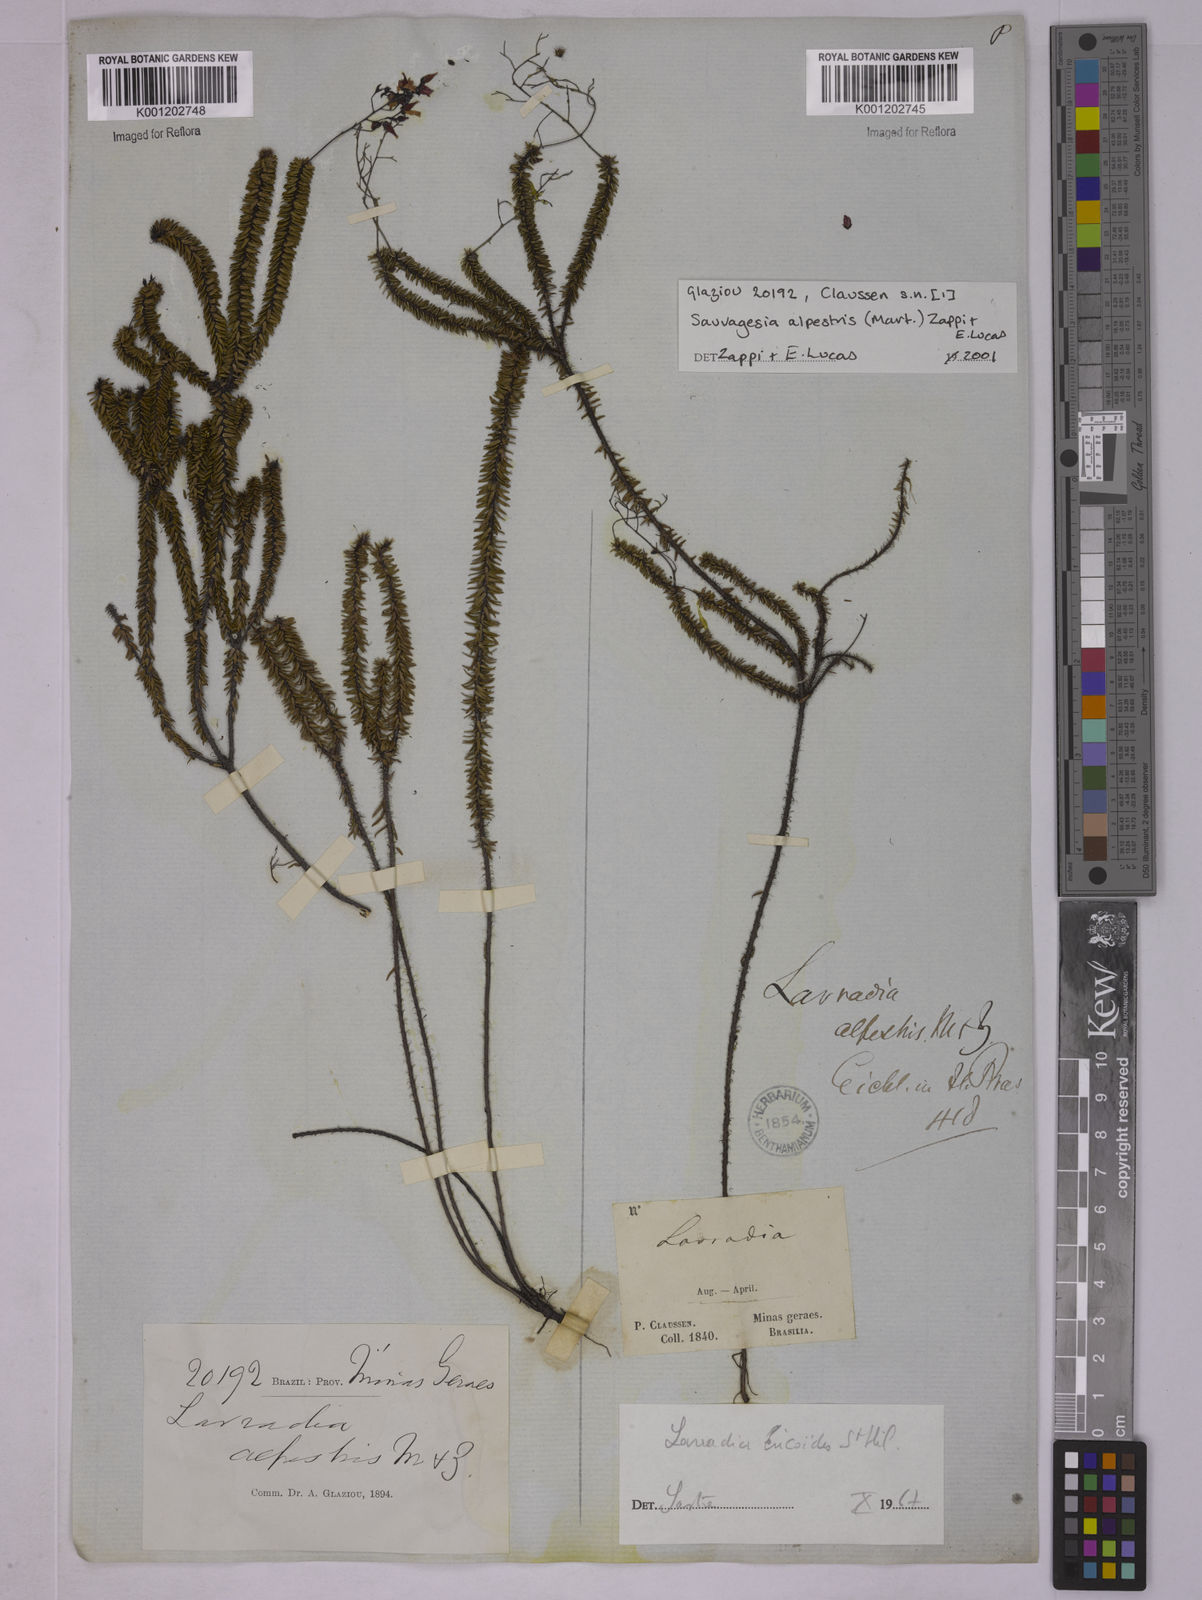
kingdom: Plantae
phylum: Tracheophyta
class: Magnoliopsida
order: Malpighiales
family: Ochnaceae
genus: Sauvagesia
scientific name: Sauvagesia alpestris
